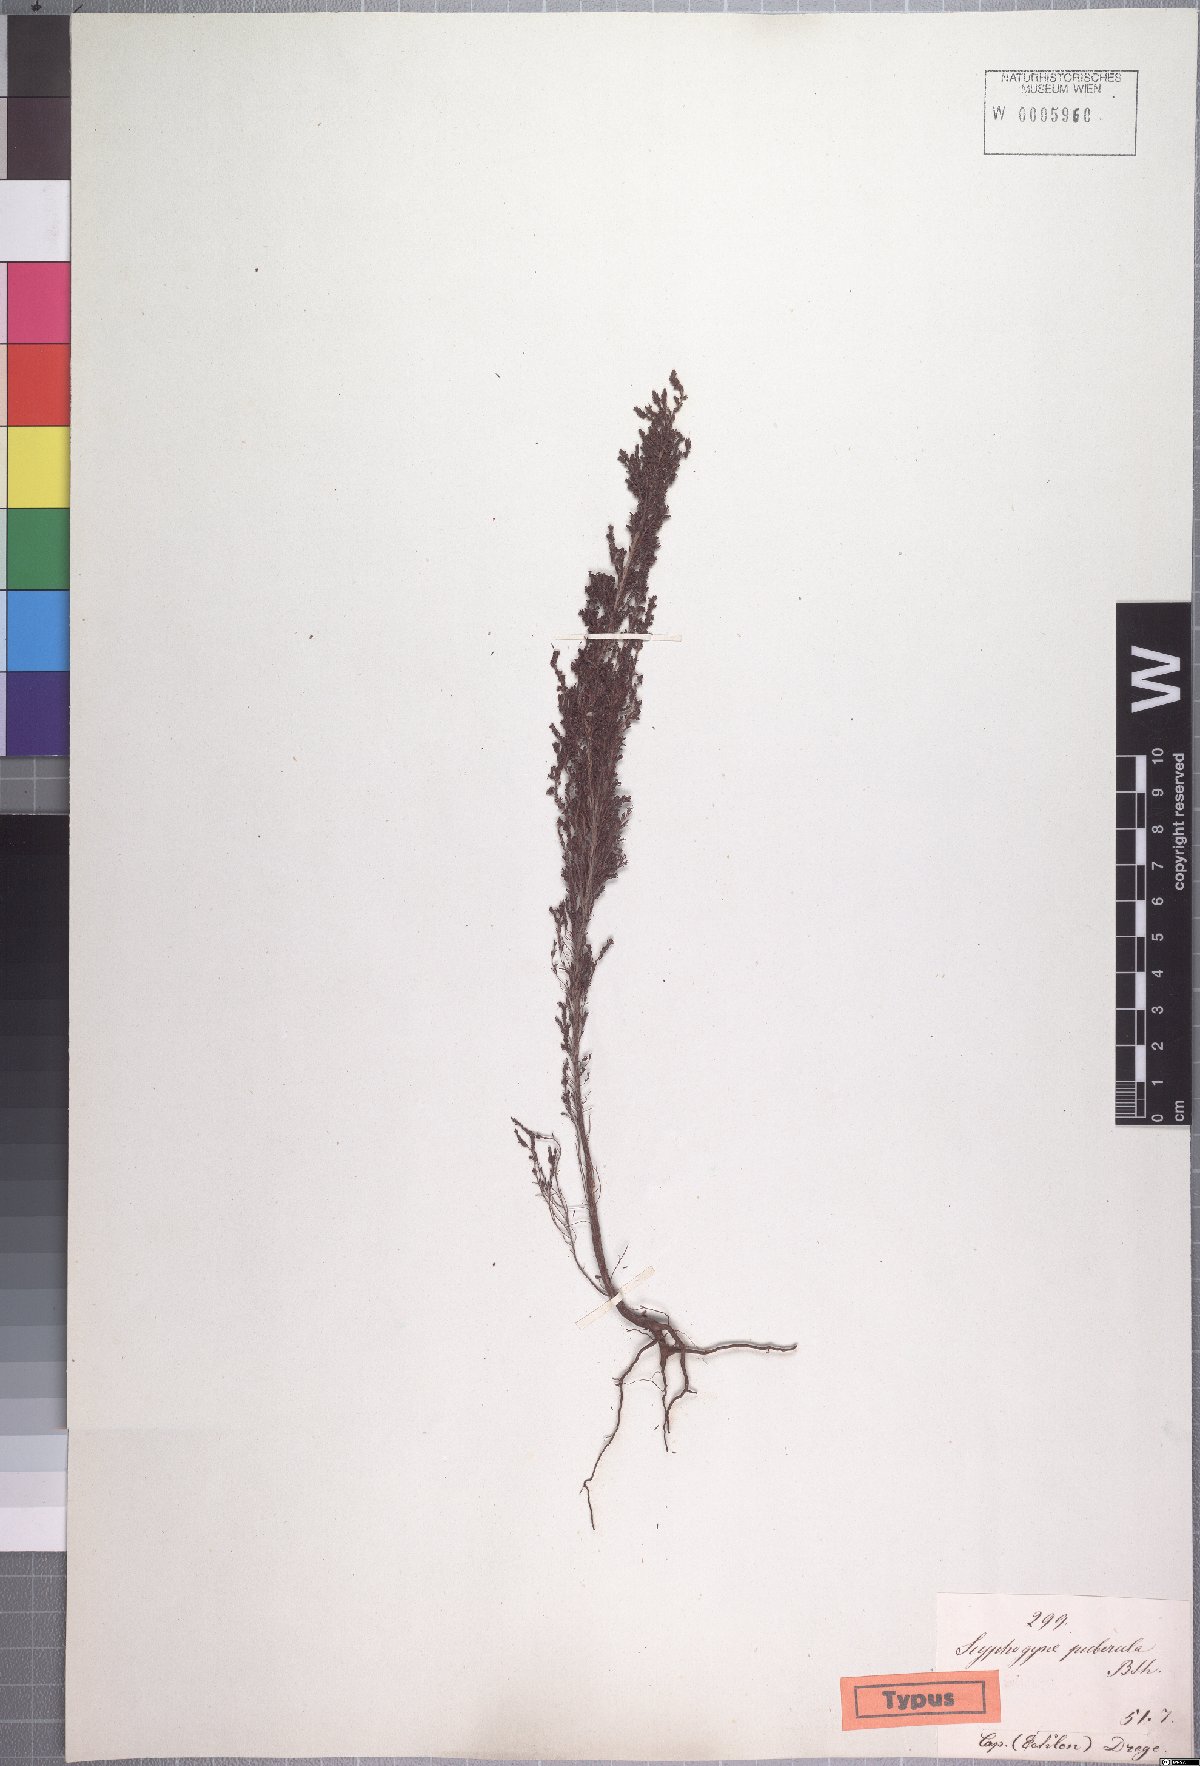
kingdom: Plantae
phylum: Tracheophyta
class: Magnoliopsida
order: Ericales
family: Ericaceae
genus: Erica
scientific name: Erica urceolata
